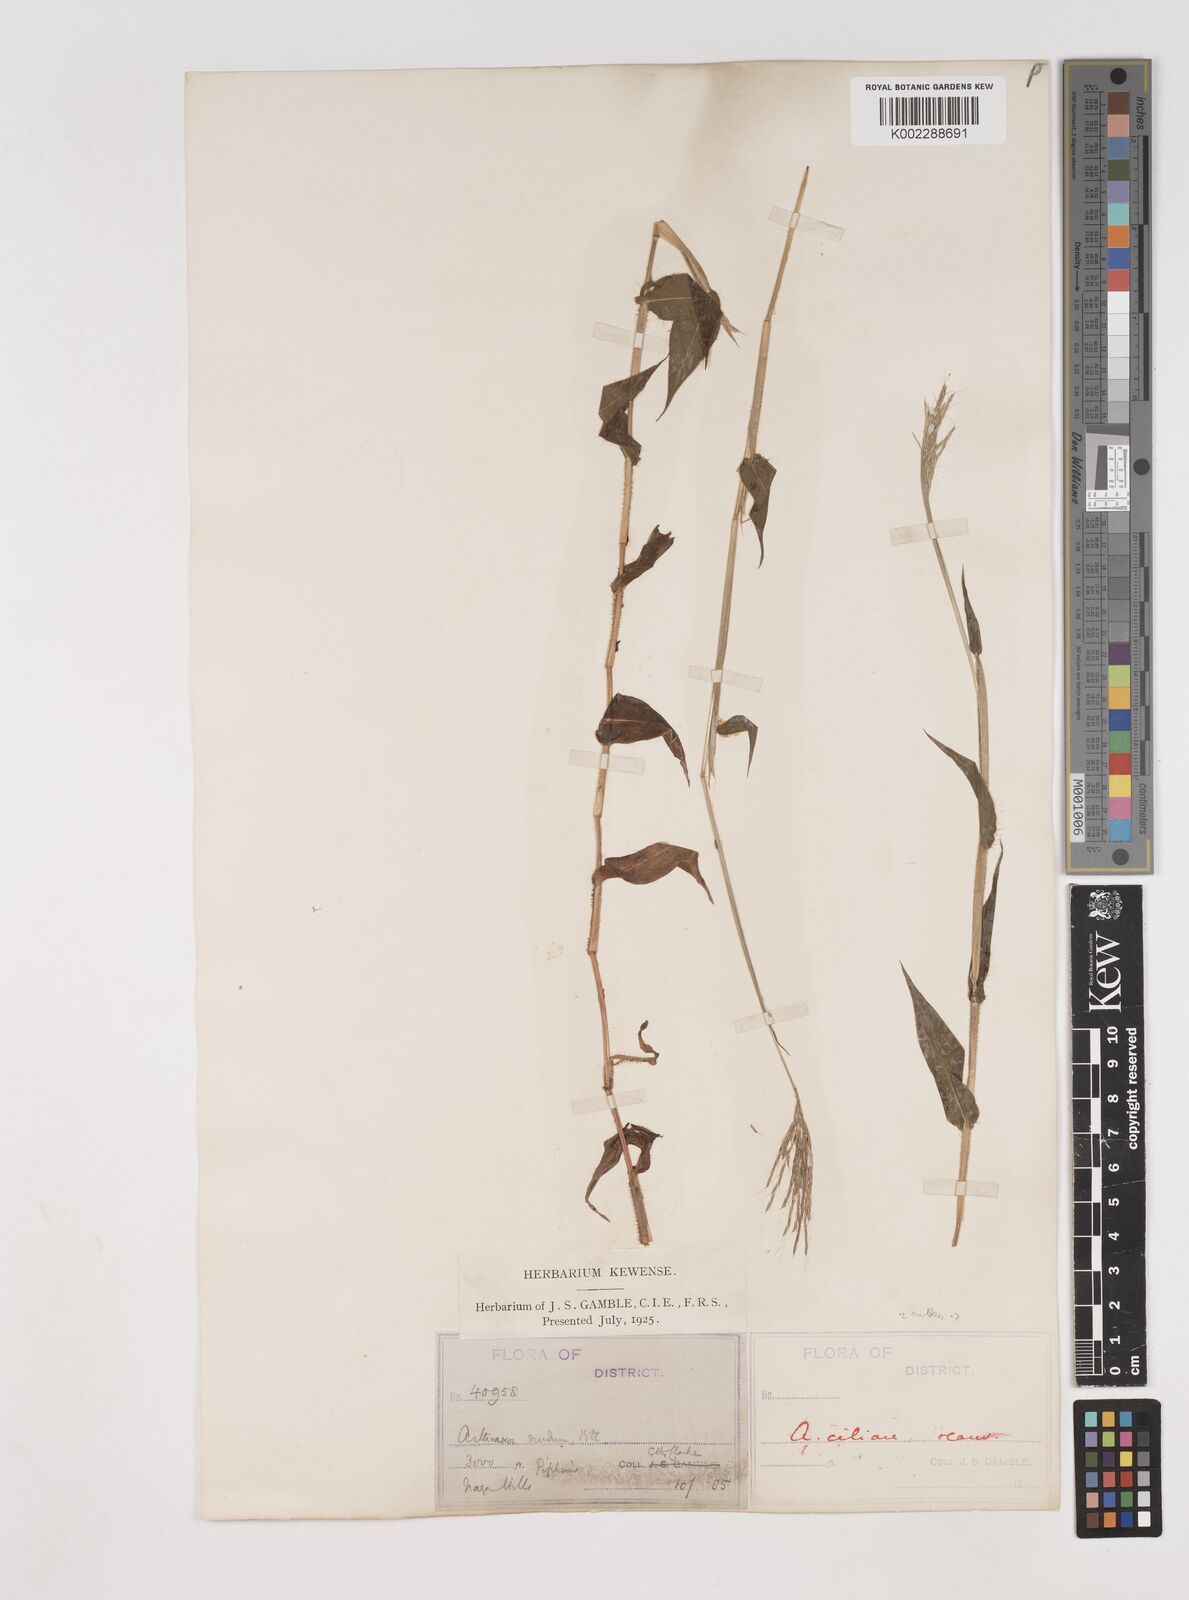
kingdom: Plantae
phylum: Tracheophyta
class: Liliopsida
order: Poales
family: Poaceae
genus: Arthraxon
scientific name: Arthraxon hispidus
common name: Small carpgrass
